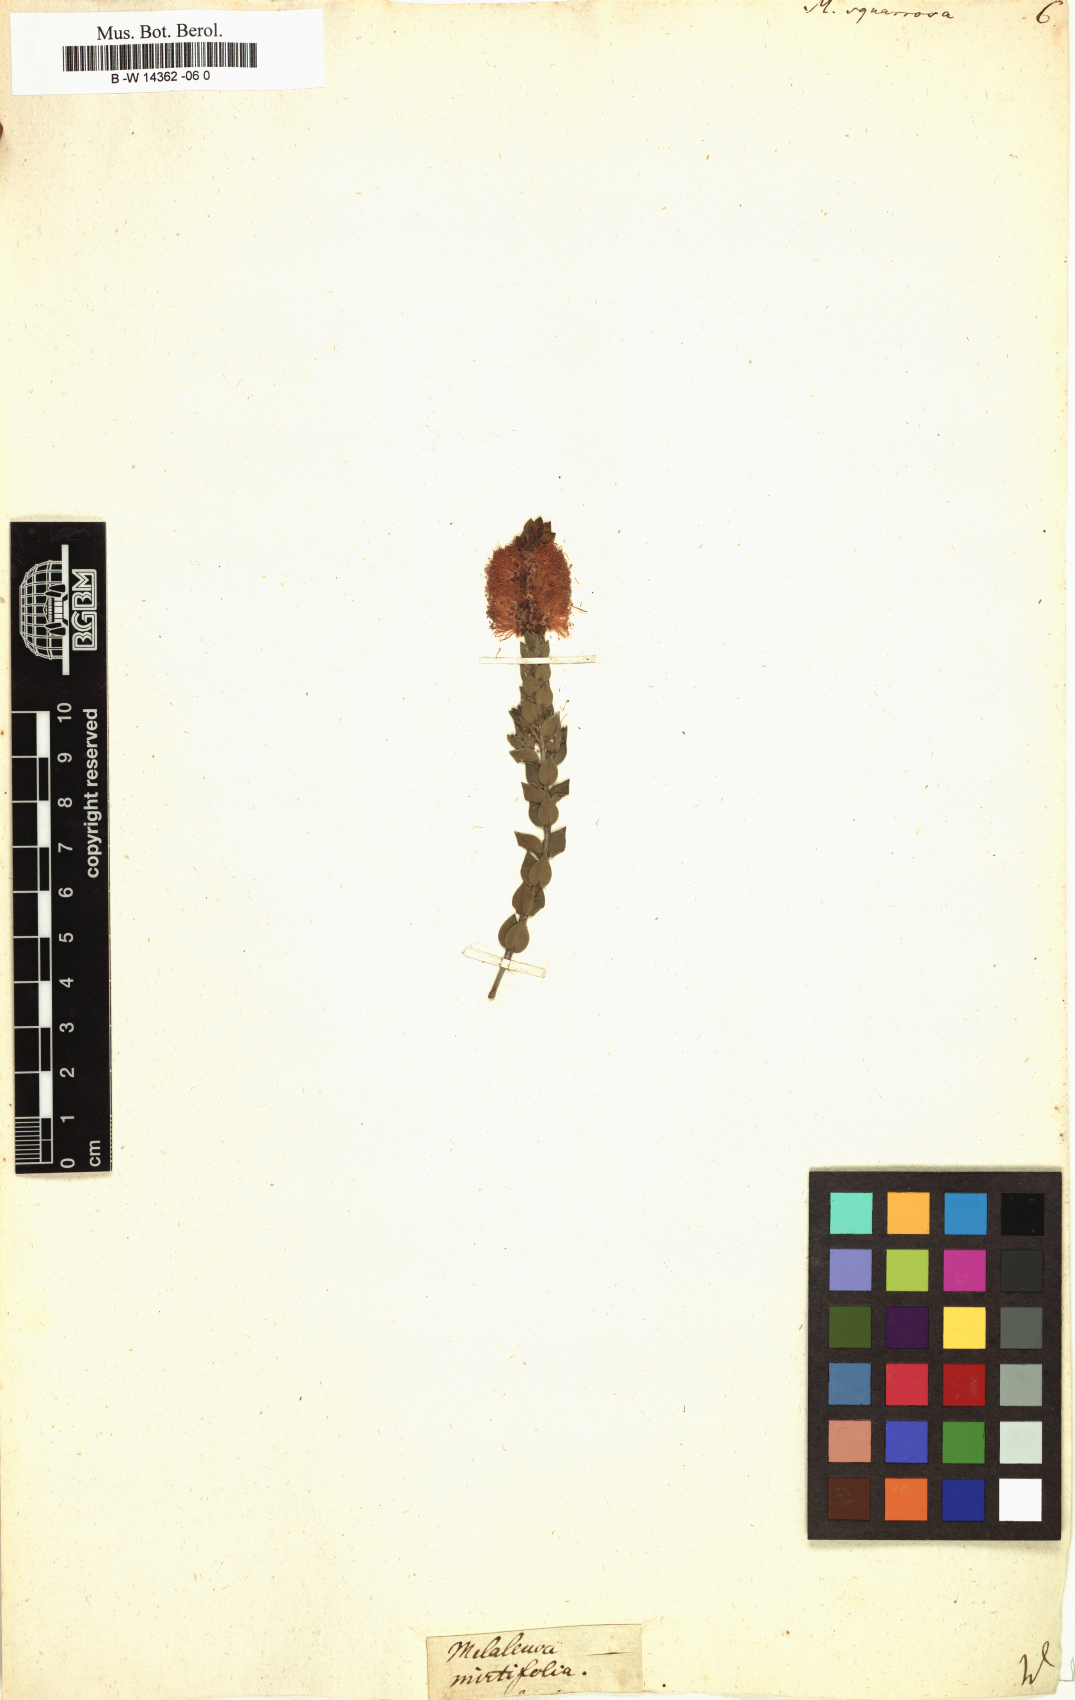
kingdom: Plantae
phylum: Tracheophyta
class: Magnoliopsida
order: Myrtales
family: Myrtaceae
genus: Melaleuca
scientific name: Melaleuca squarrosa
